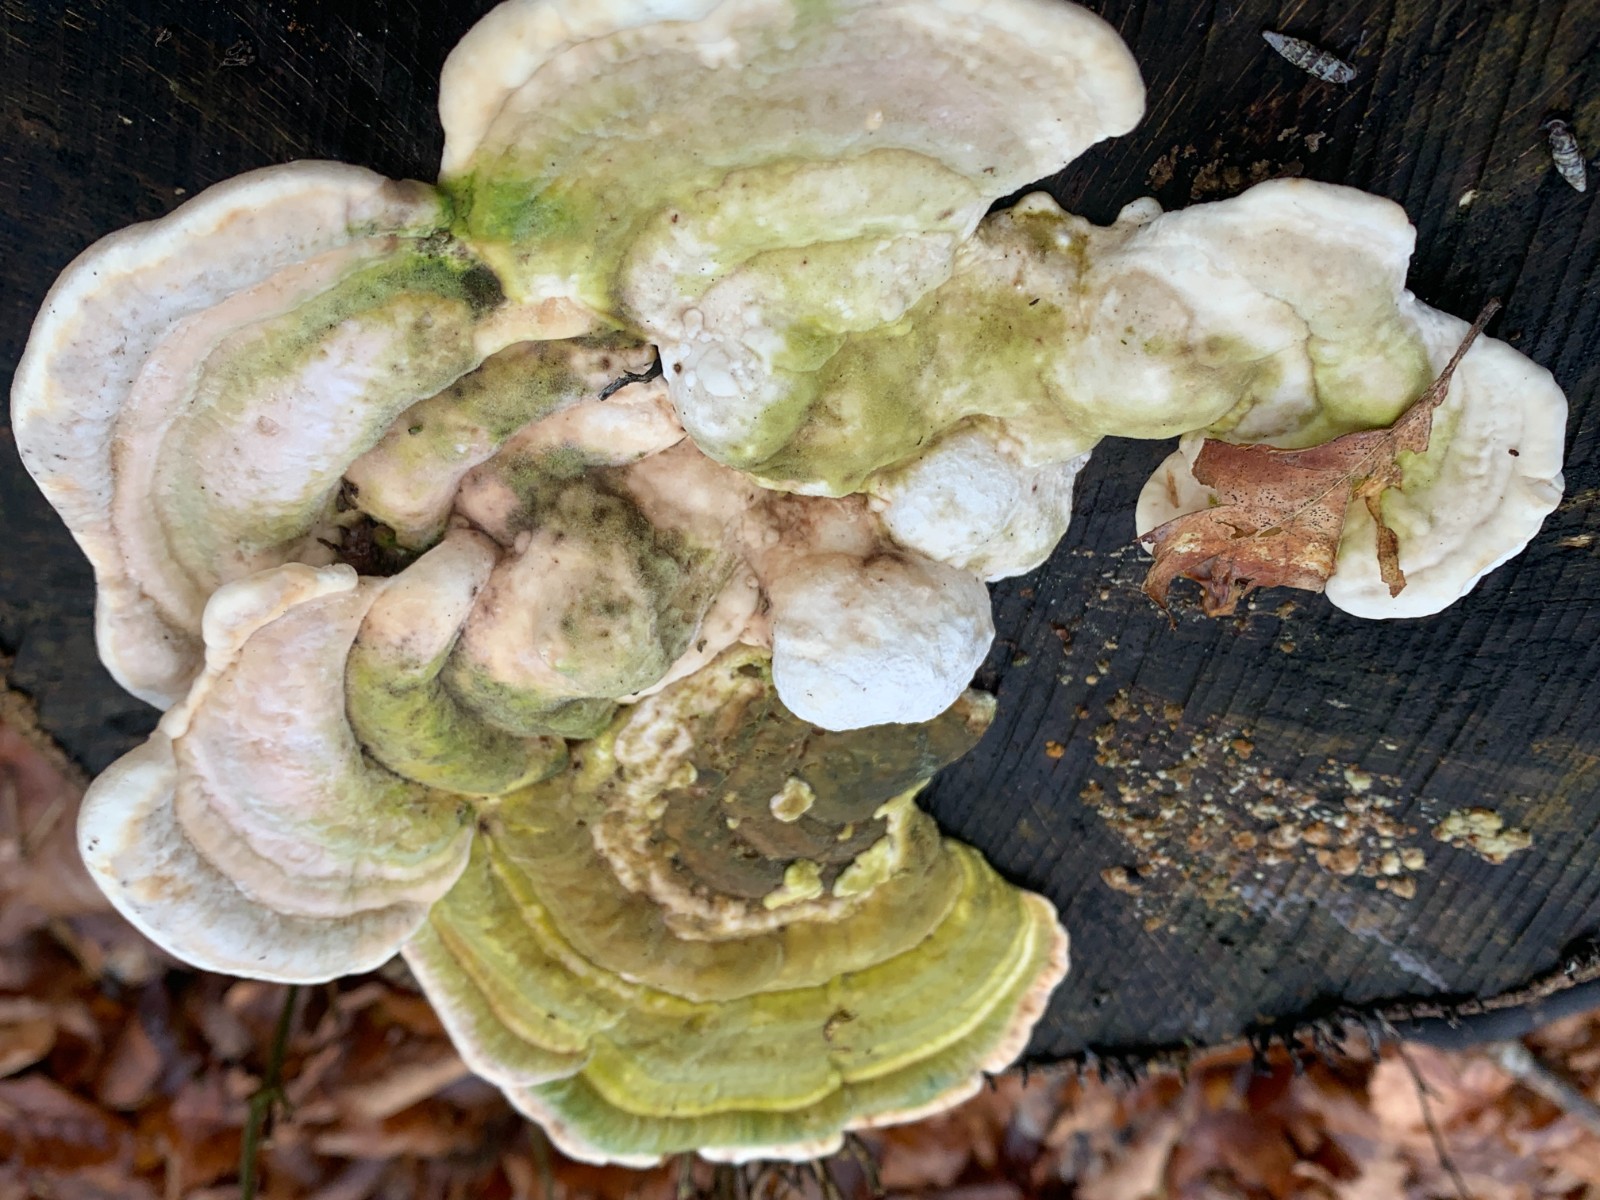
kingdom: Fungi
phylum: Basidiomycota
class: Agaricomycetes
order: Polyporales
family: Polyporaceae
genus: Trametes
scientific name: Trametes gibbosa
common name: puklet læderporesvamp
